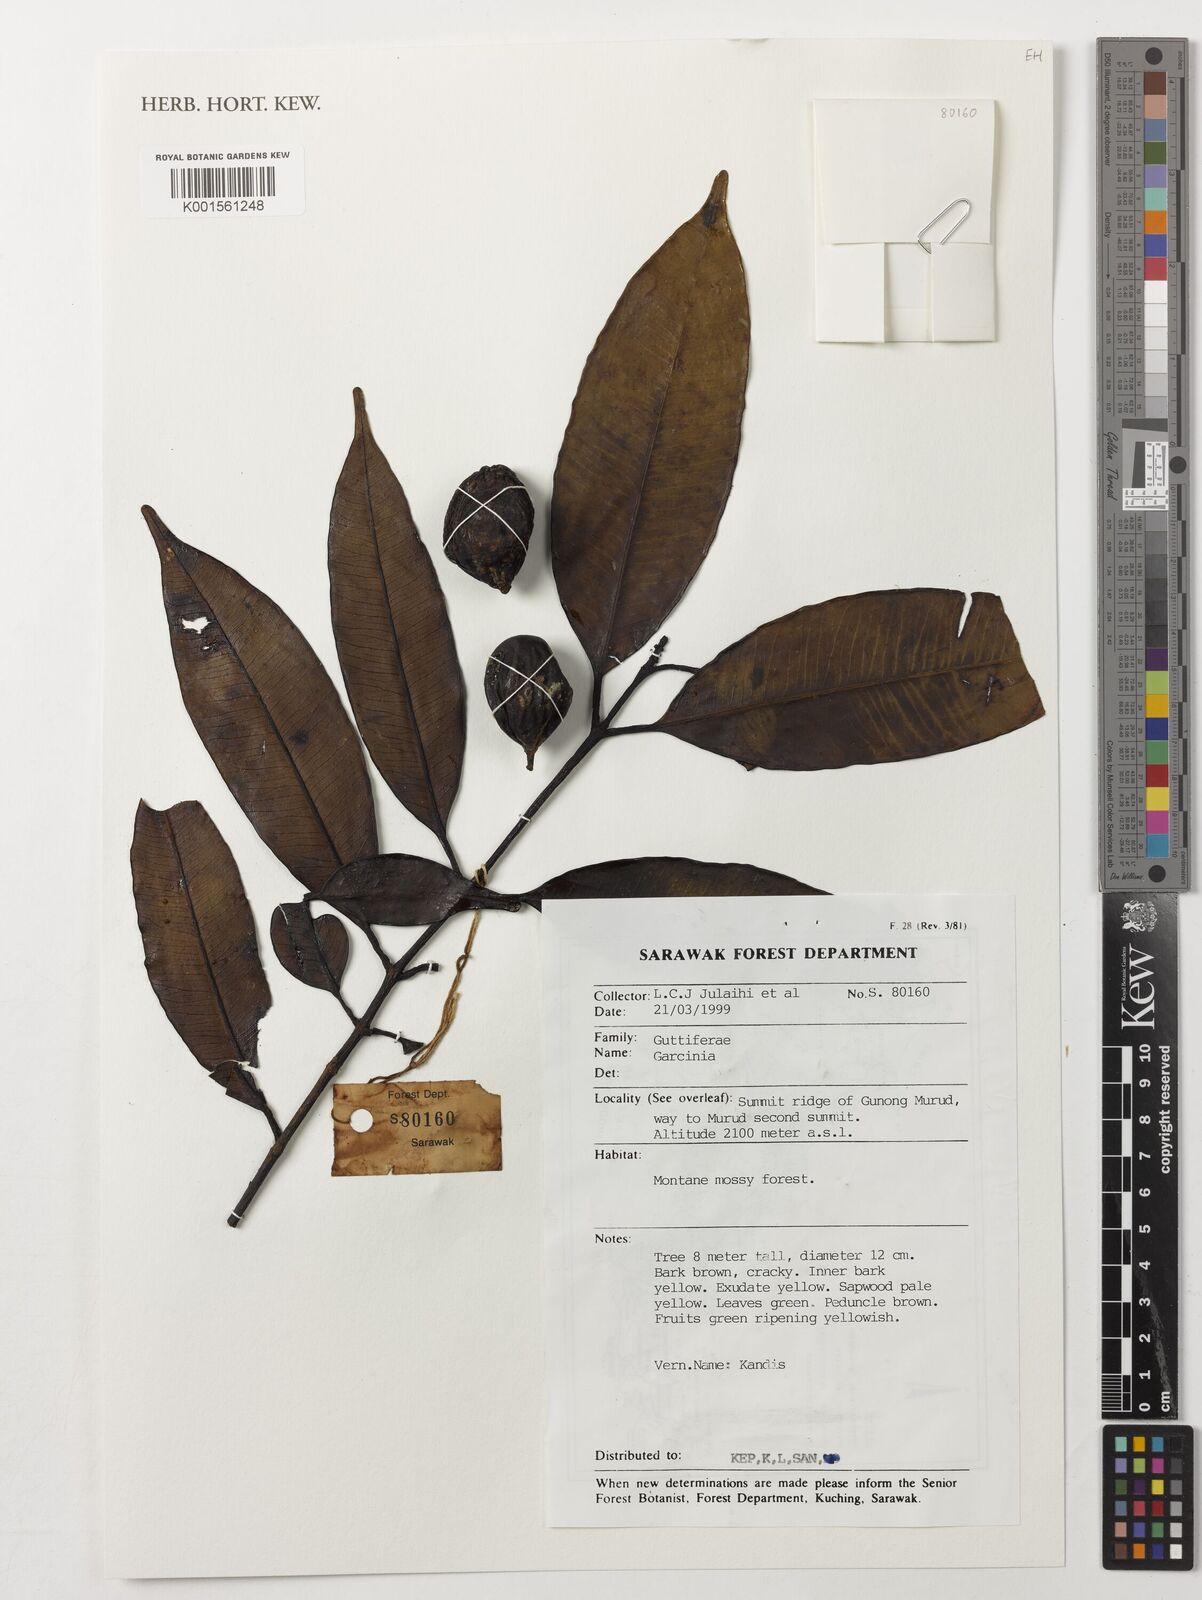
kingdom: Plantae
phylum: Tracheophyta
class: Magnoliopsida
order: Malpighiales
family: Clusiaceae
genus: Garcinia
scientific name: Garcinia
